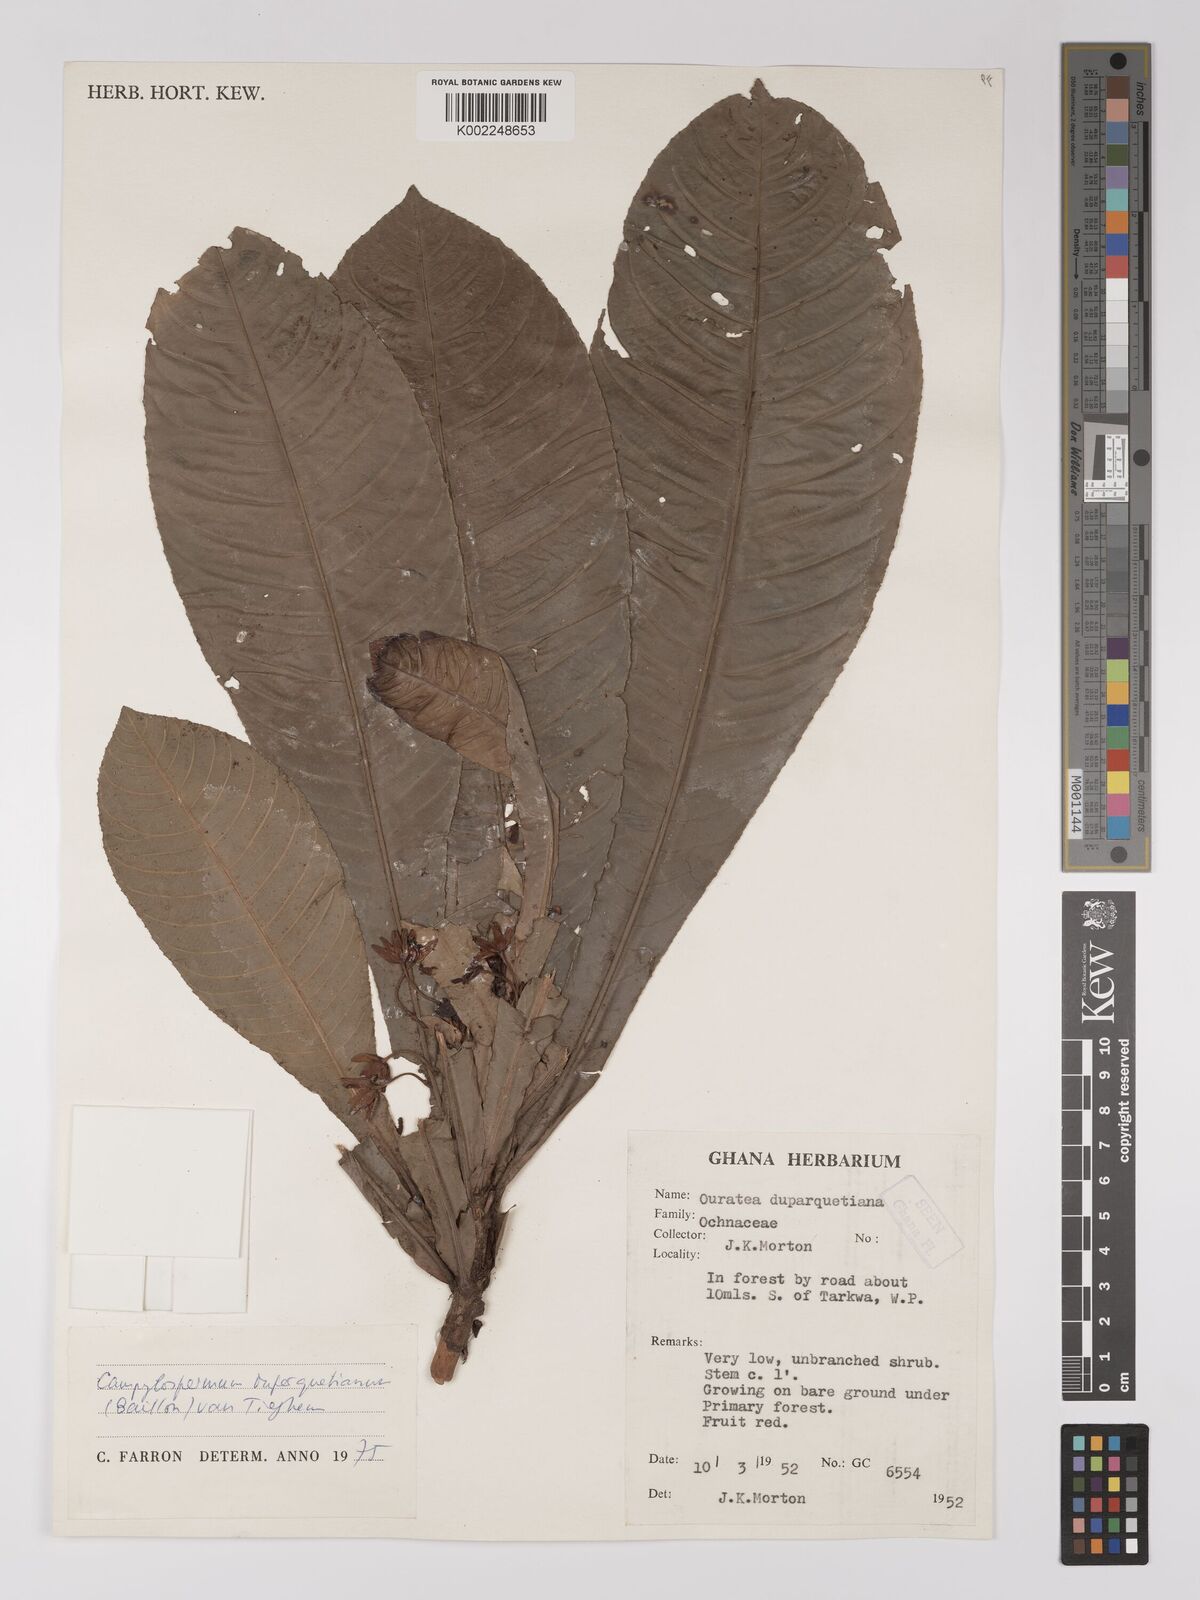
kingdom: Plantae
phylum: Tracheophyta
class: Magnoliopsida
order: Malpighiales
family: Ochnaceae
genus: Campylospermum
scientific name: Campylospermum duparquetianum
